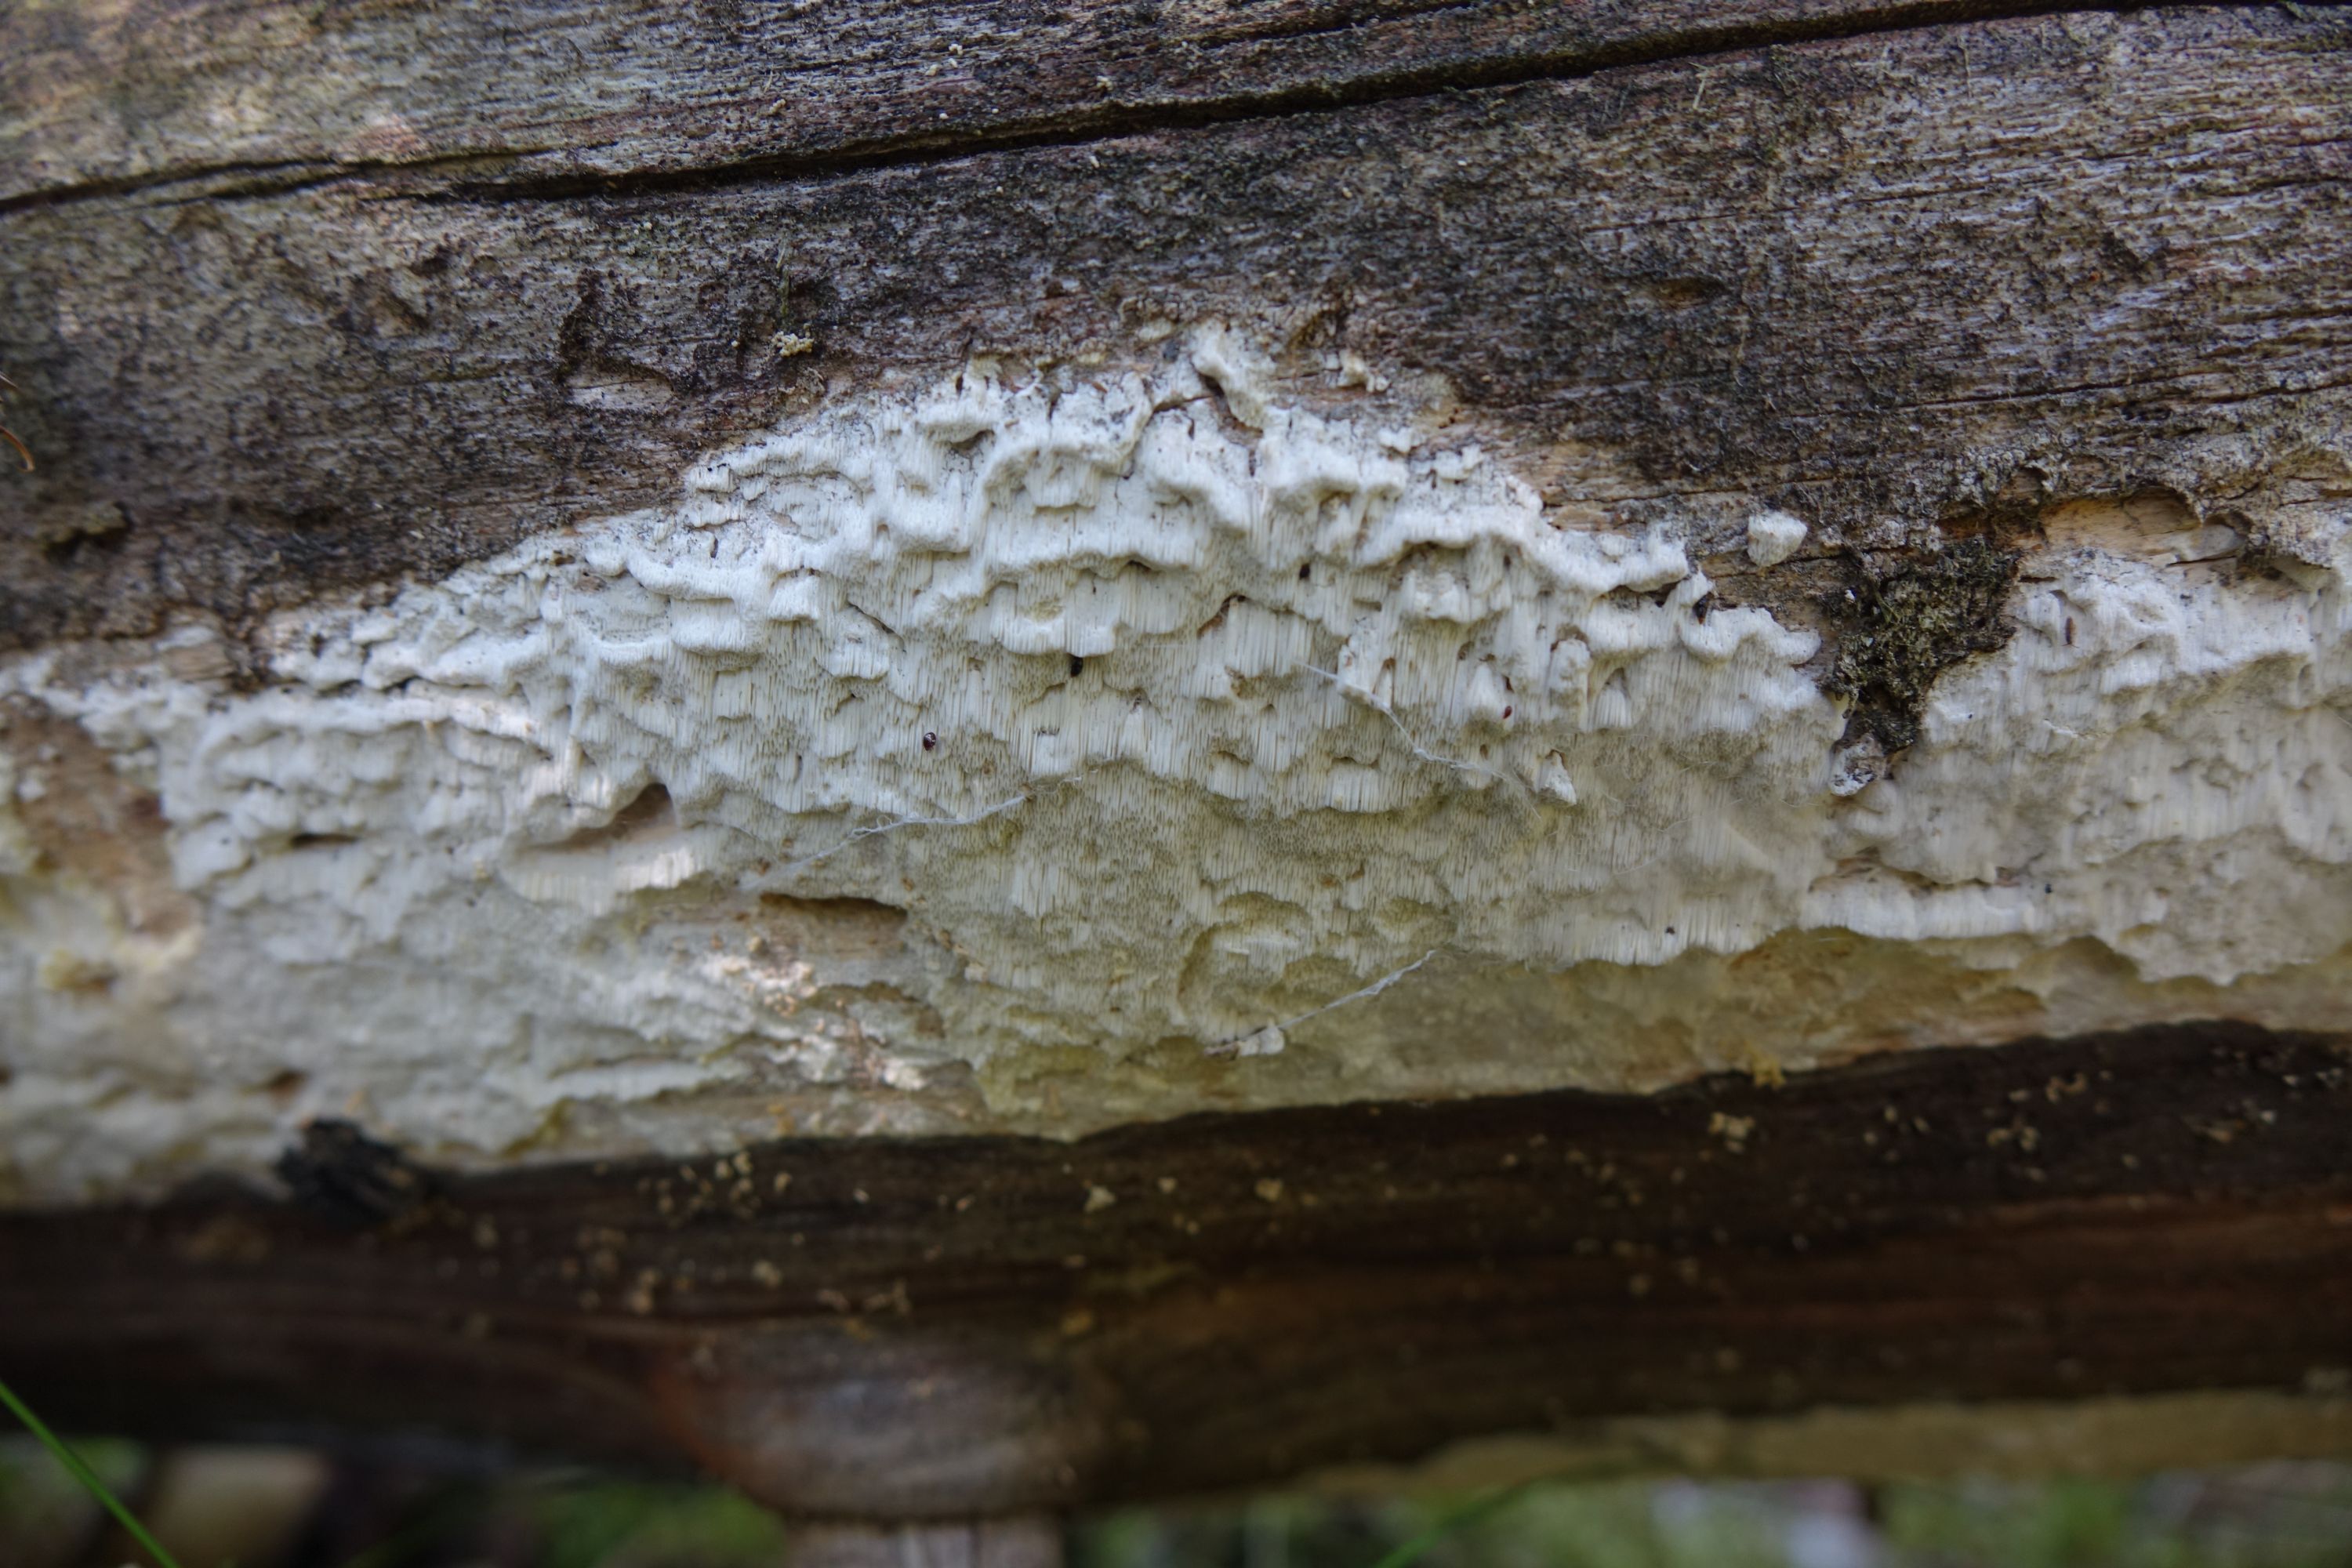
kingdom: Fungi
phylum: Basidiomycota
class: Agaricomycetes
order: Polyporales
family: Fomitopsidaceae
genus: Daedalea
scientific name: Daedalea xantha
